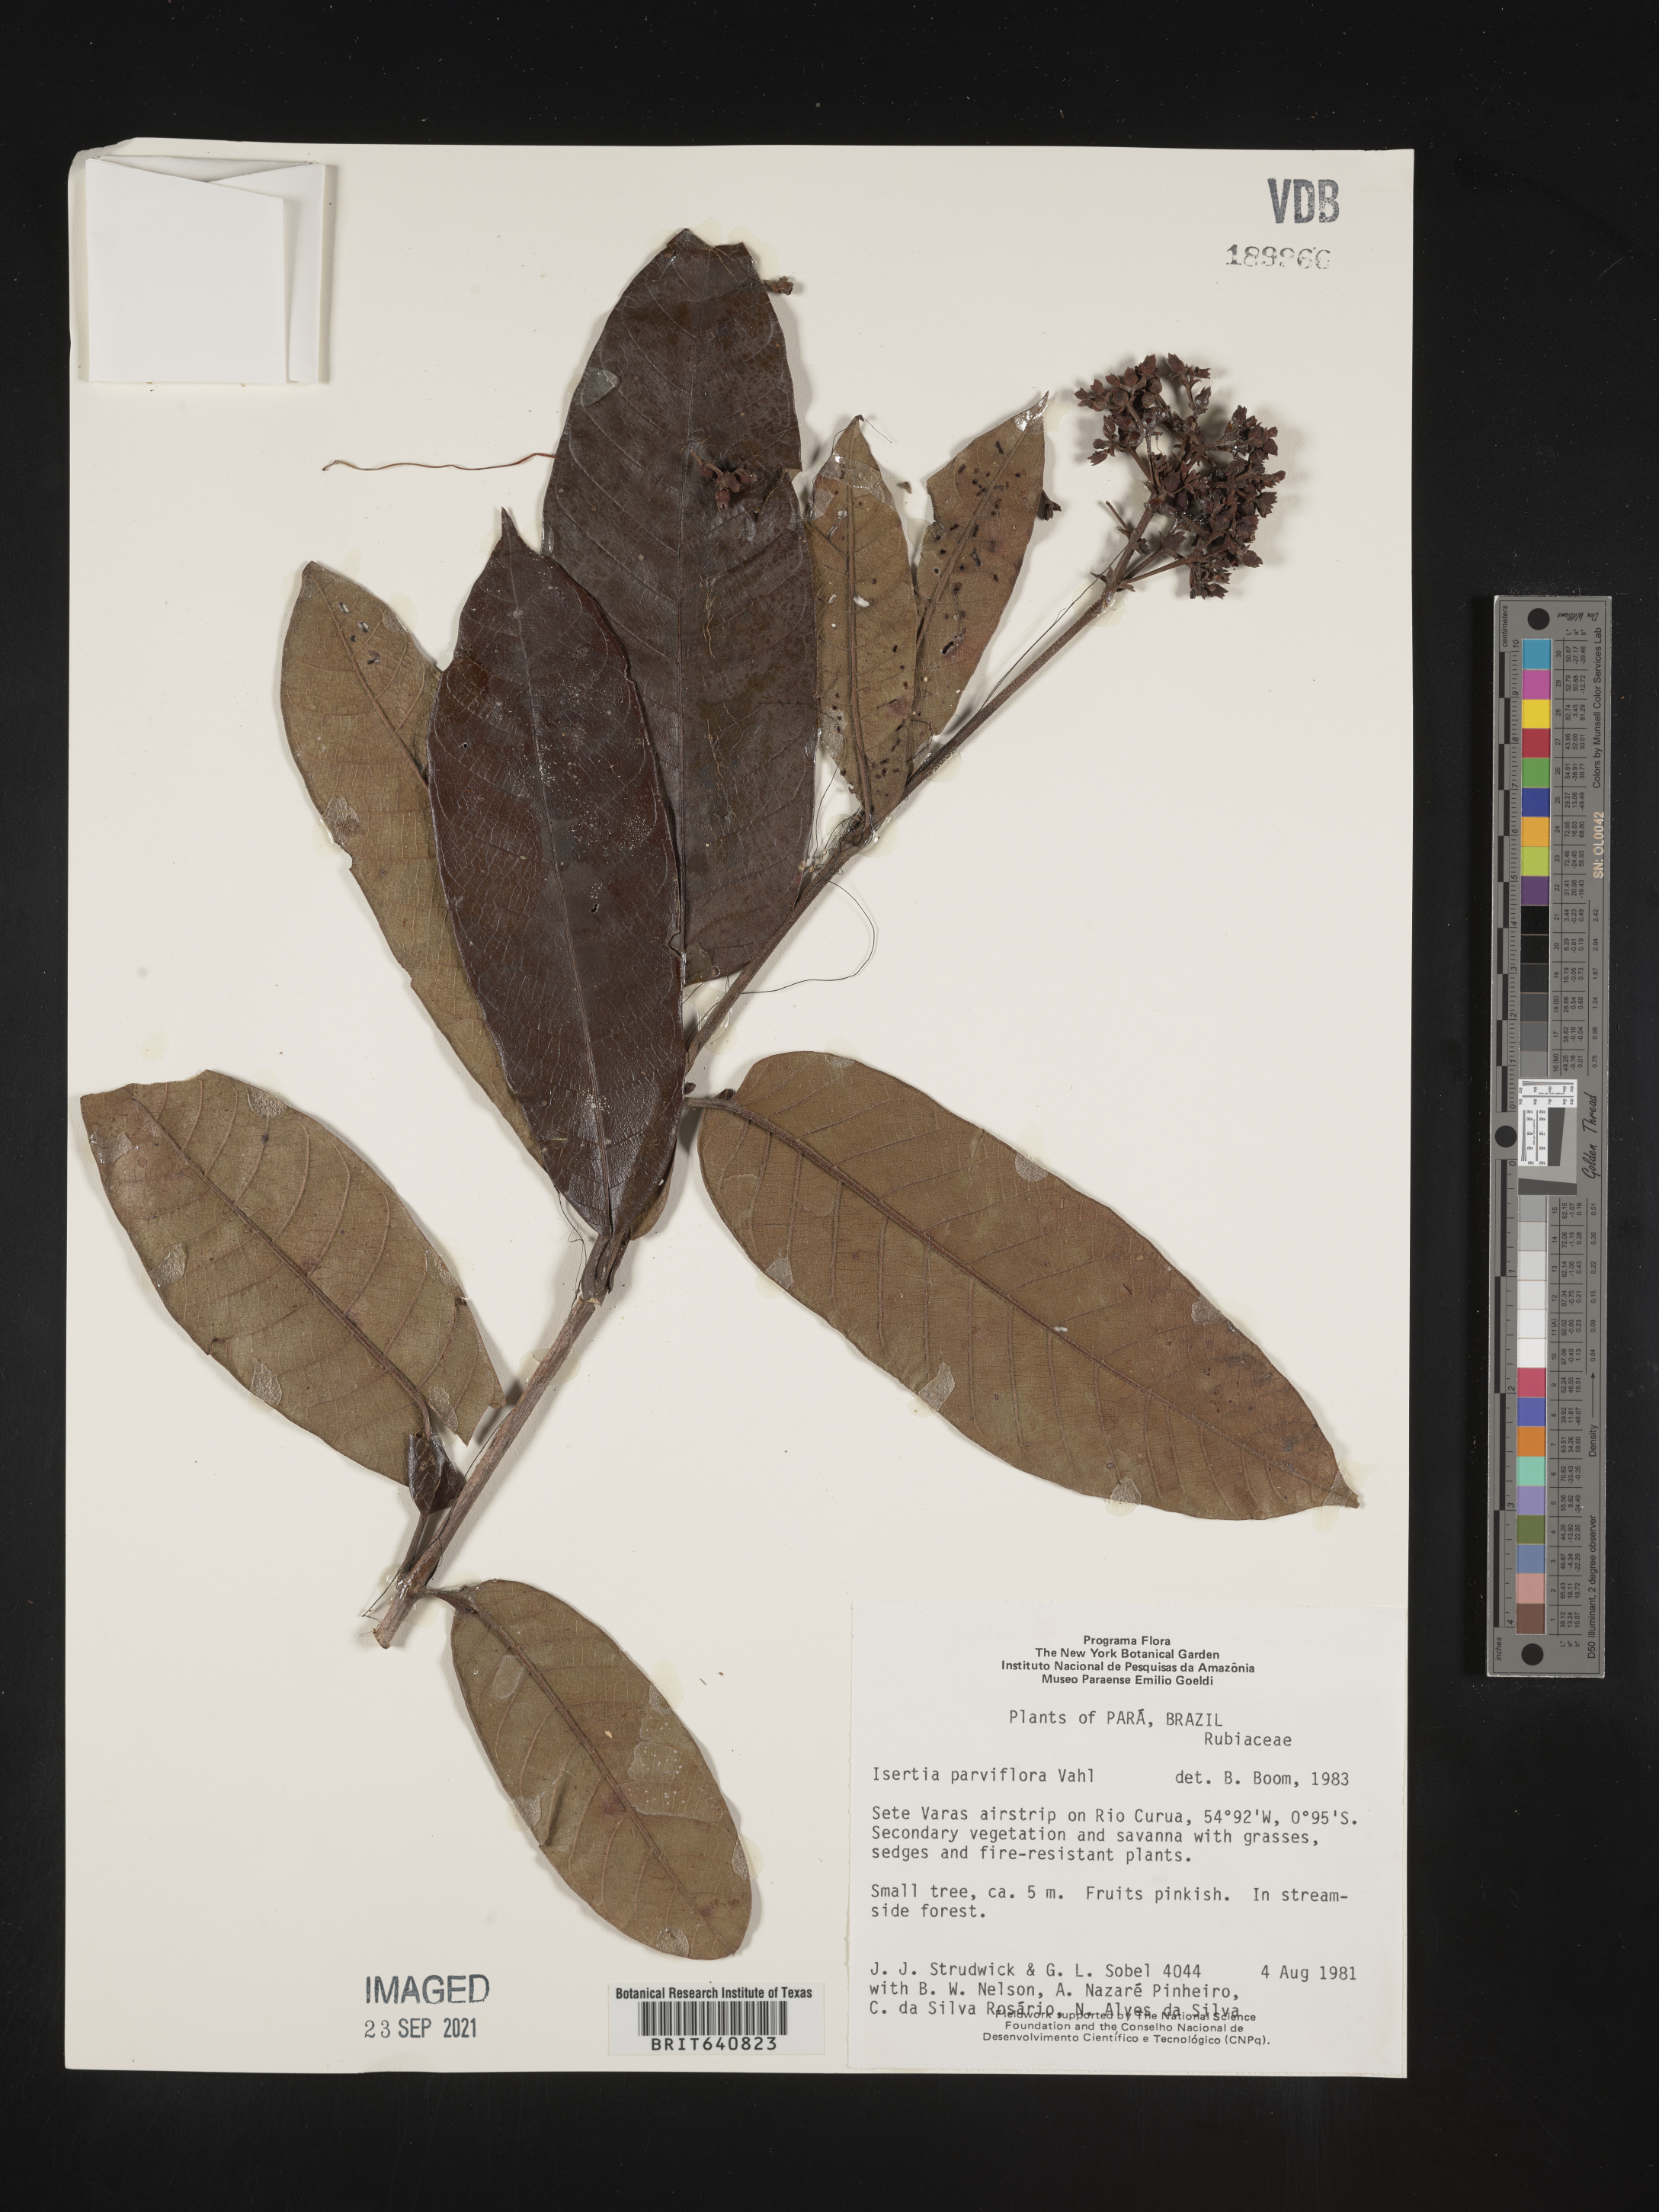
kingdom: Plantae
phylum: Tracheophyta
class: Magnoliopsida
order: Gentianales
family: Rubiaceae
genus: Isertia
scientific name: Isertia
